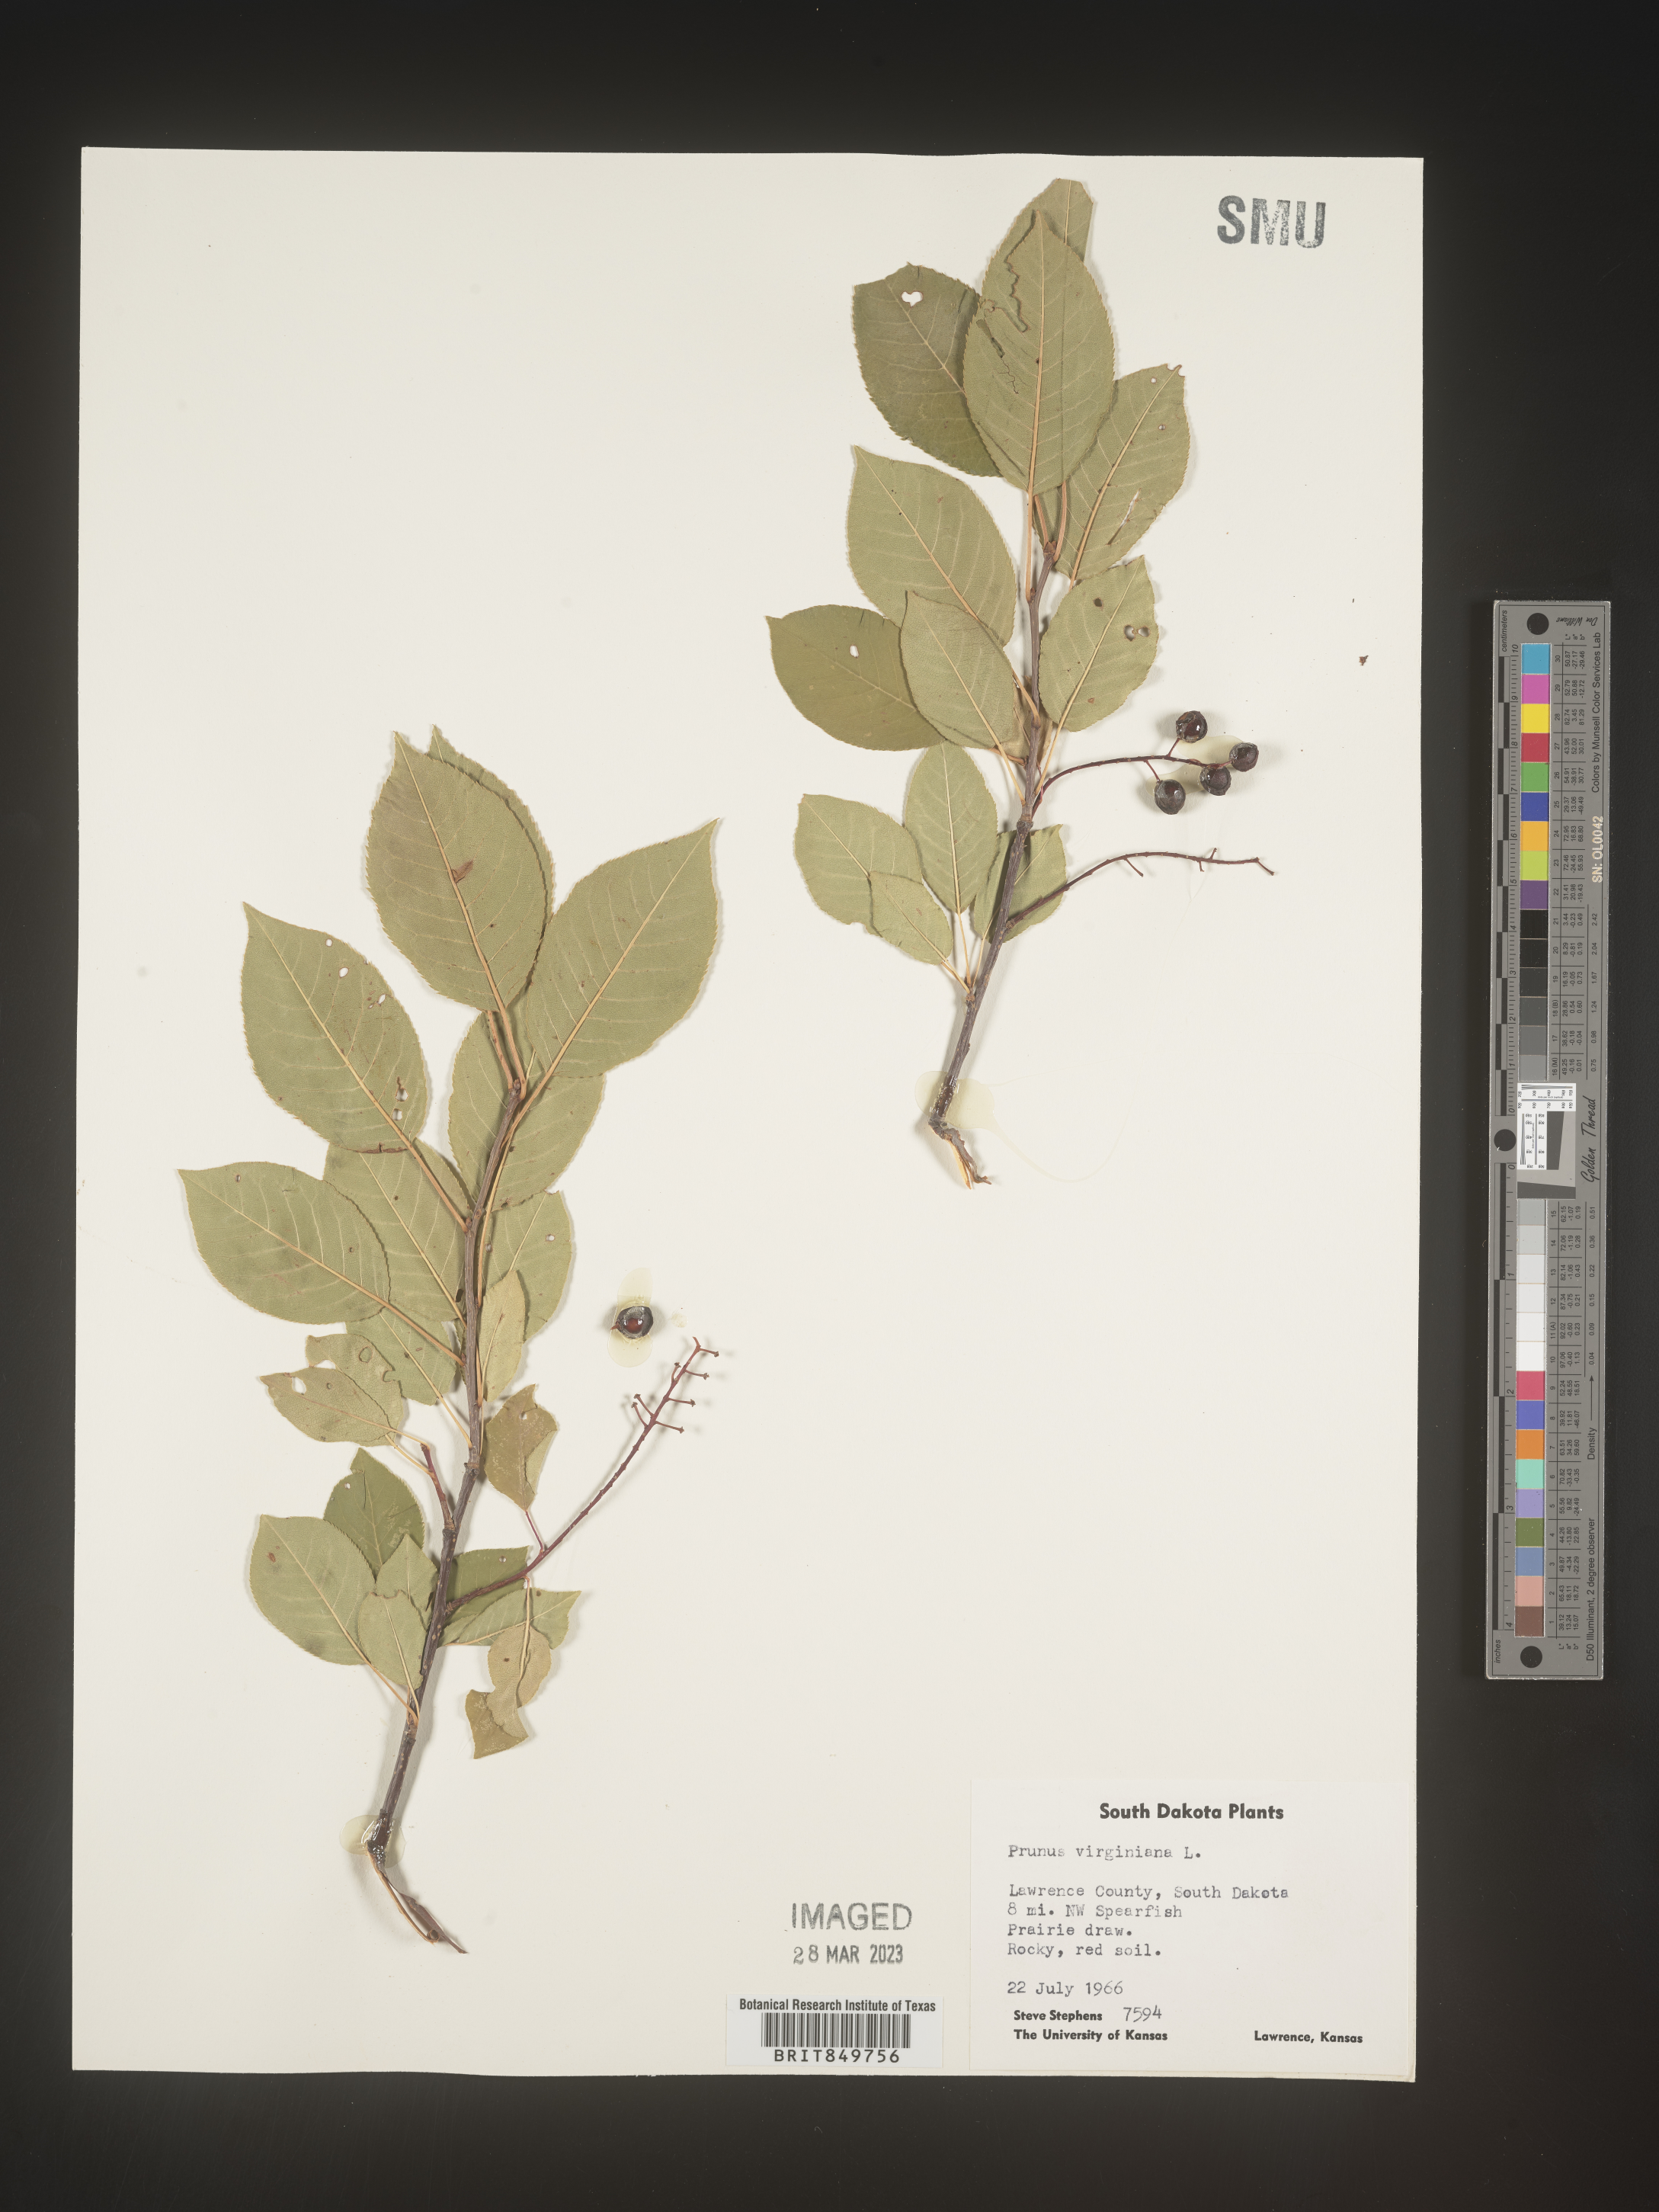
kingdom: Plantae
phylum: Tracheophyta
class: Magnoliopsida
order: Rosales
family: Rosaceae
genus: Prunus
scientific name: Prunus virginiana
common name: Chokecherry
